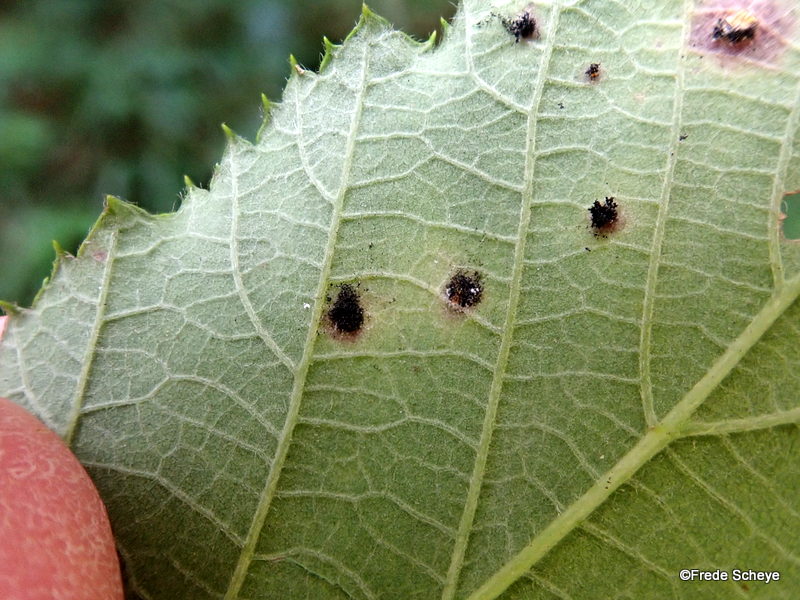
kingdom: Fungi
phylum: Basidiomycota
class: Pucciniomycetes
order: Pucciniales
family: Phragmidiaceae
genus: Phragmidium
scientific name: Phragmidium violaceum
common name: violet flercellerust
